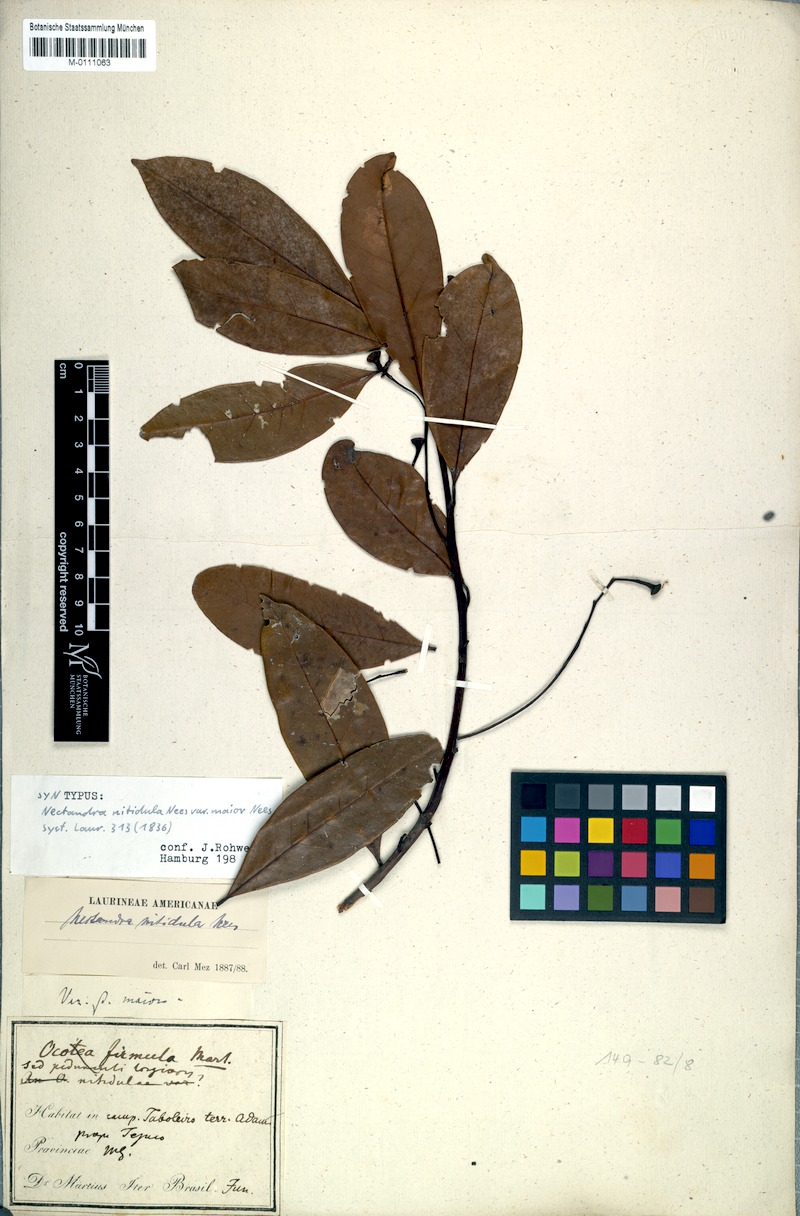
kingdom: Plantae
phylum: Tracheophyta
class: Magnoliopsida
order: Laurales
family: Lauraceae
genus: Nectandra
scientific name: Nectandra nitidula
